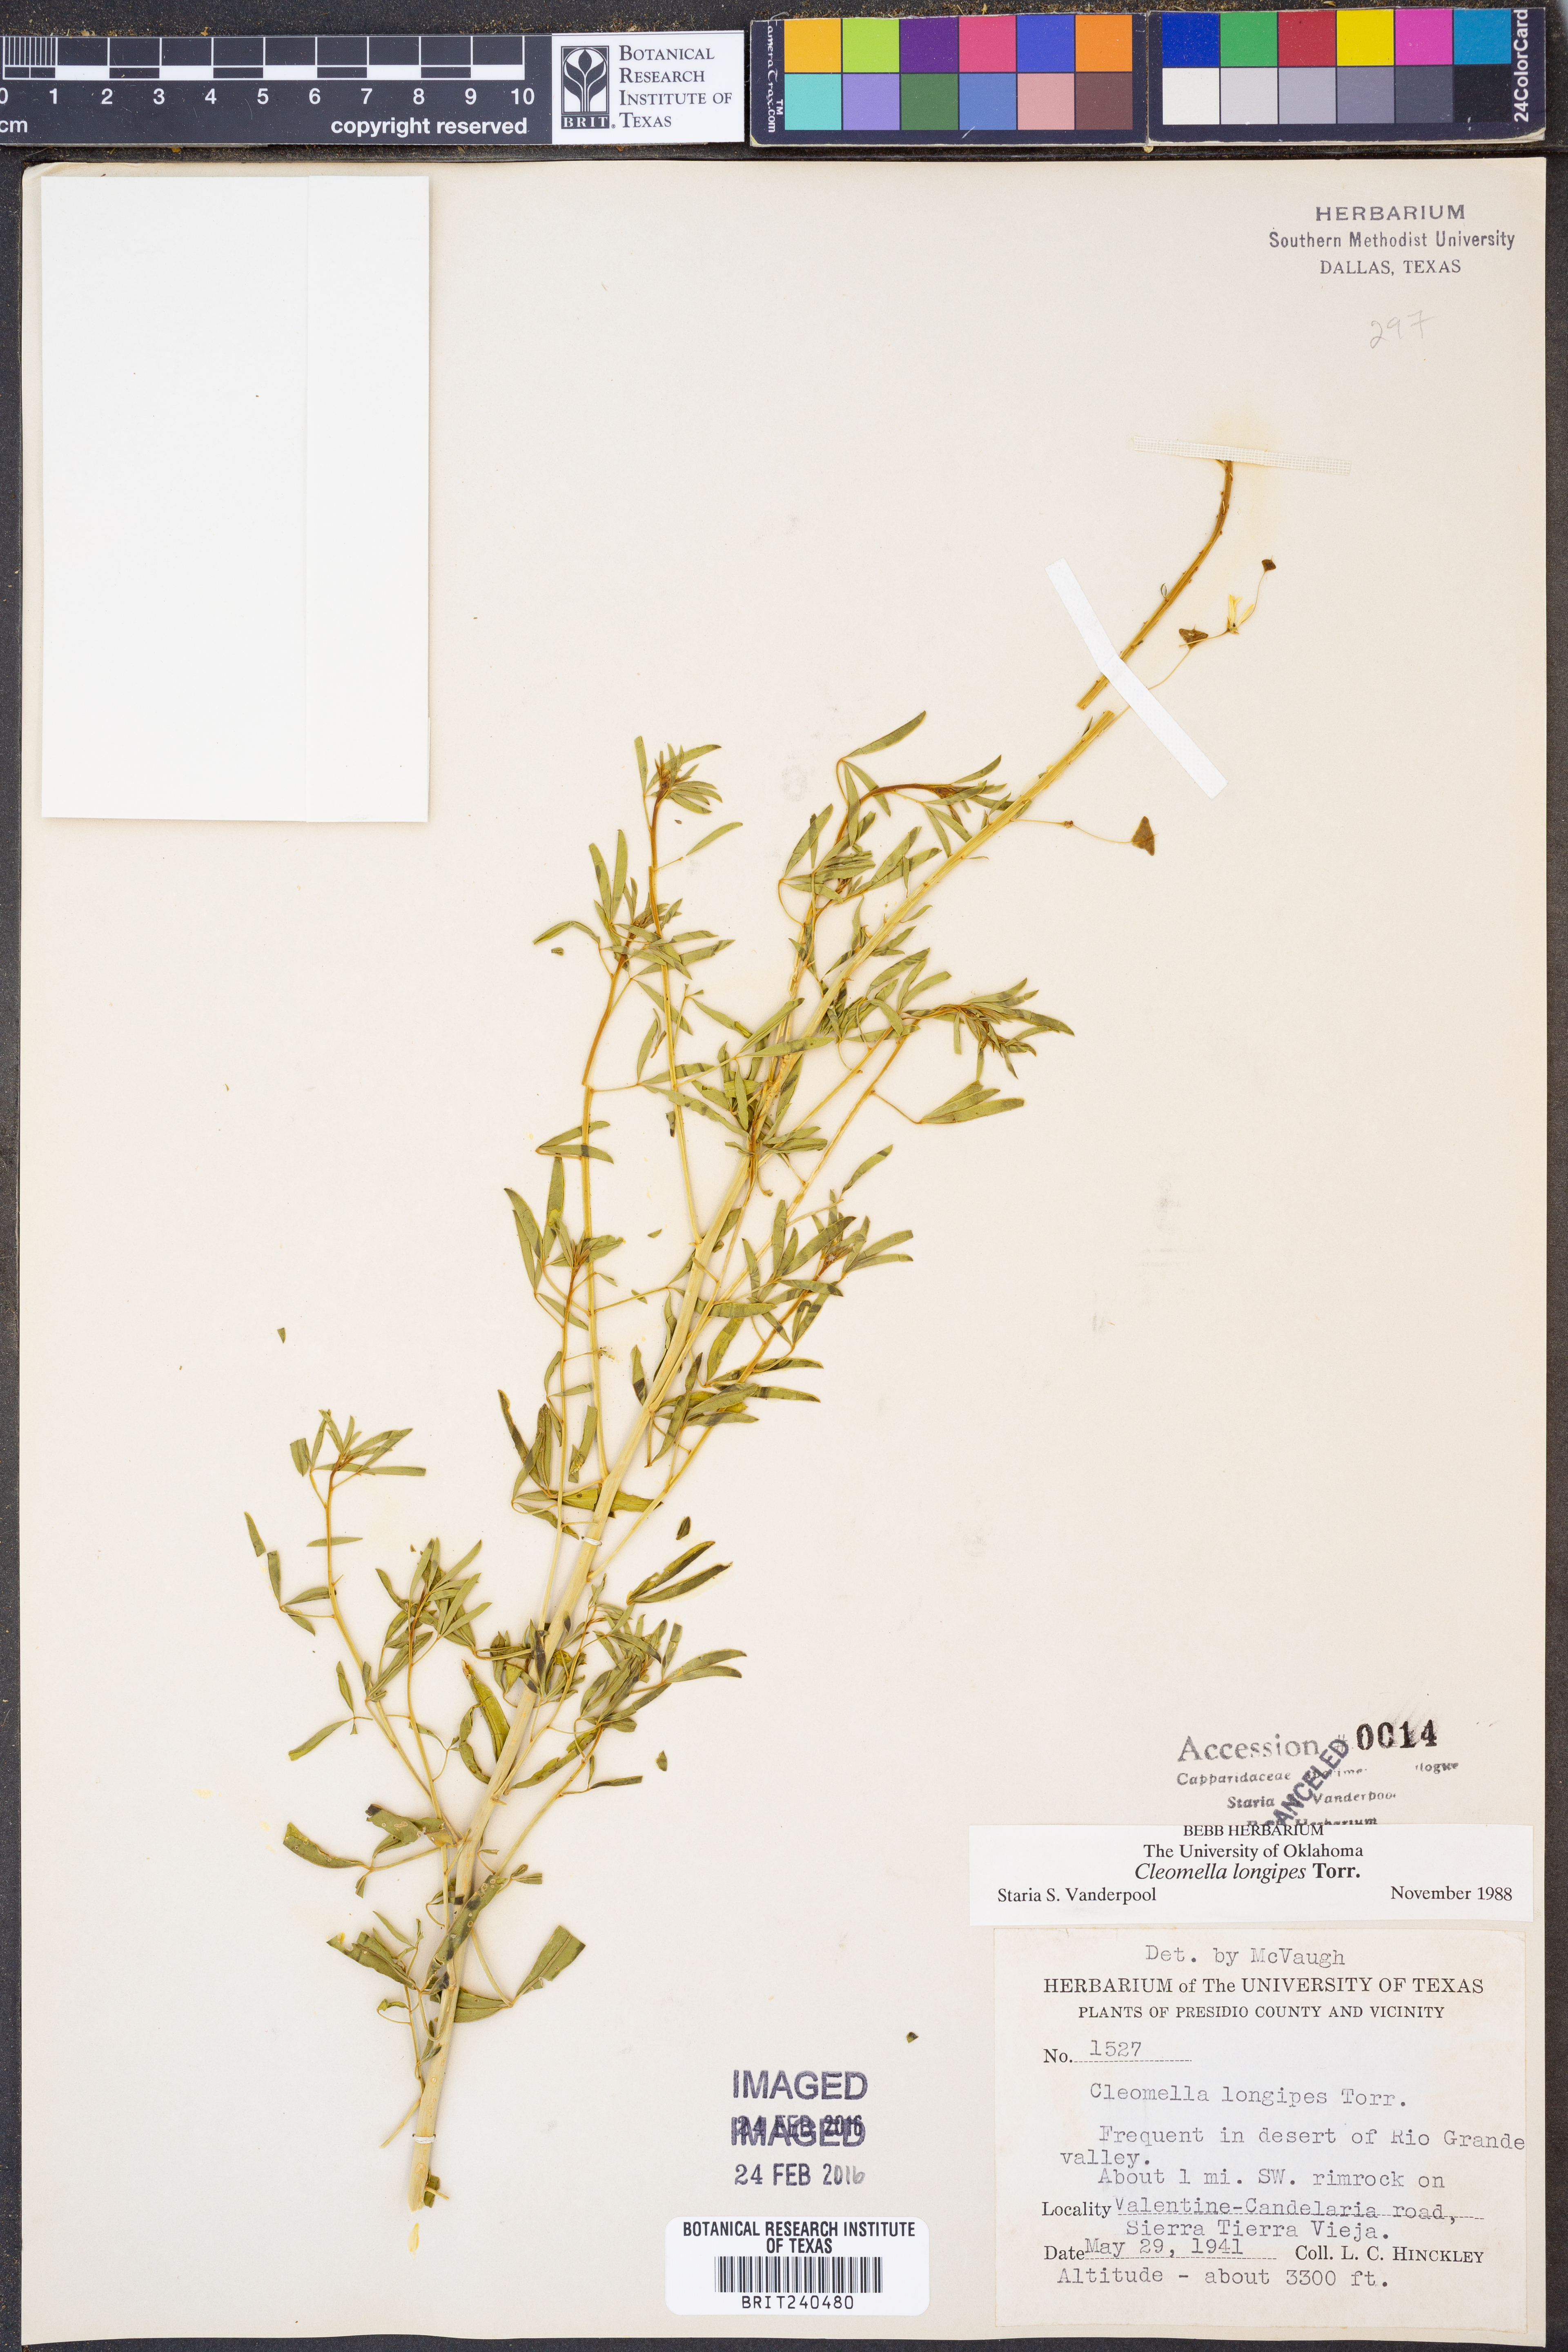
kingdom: Plantae
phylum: Tracheophyta
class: Magnoliopsida
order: Brassicales
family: Cleomaceae
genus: Cleomella
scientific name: Cleomella longipes
